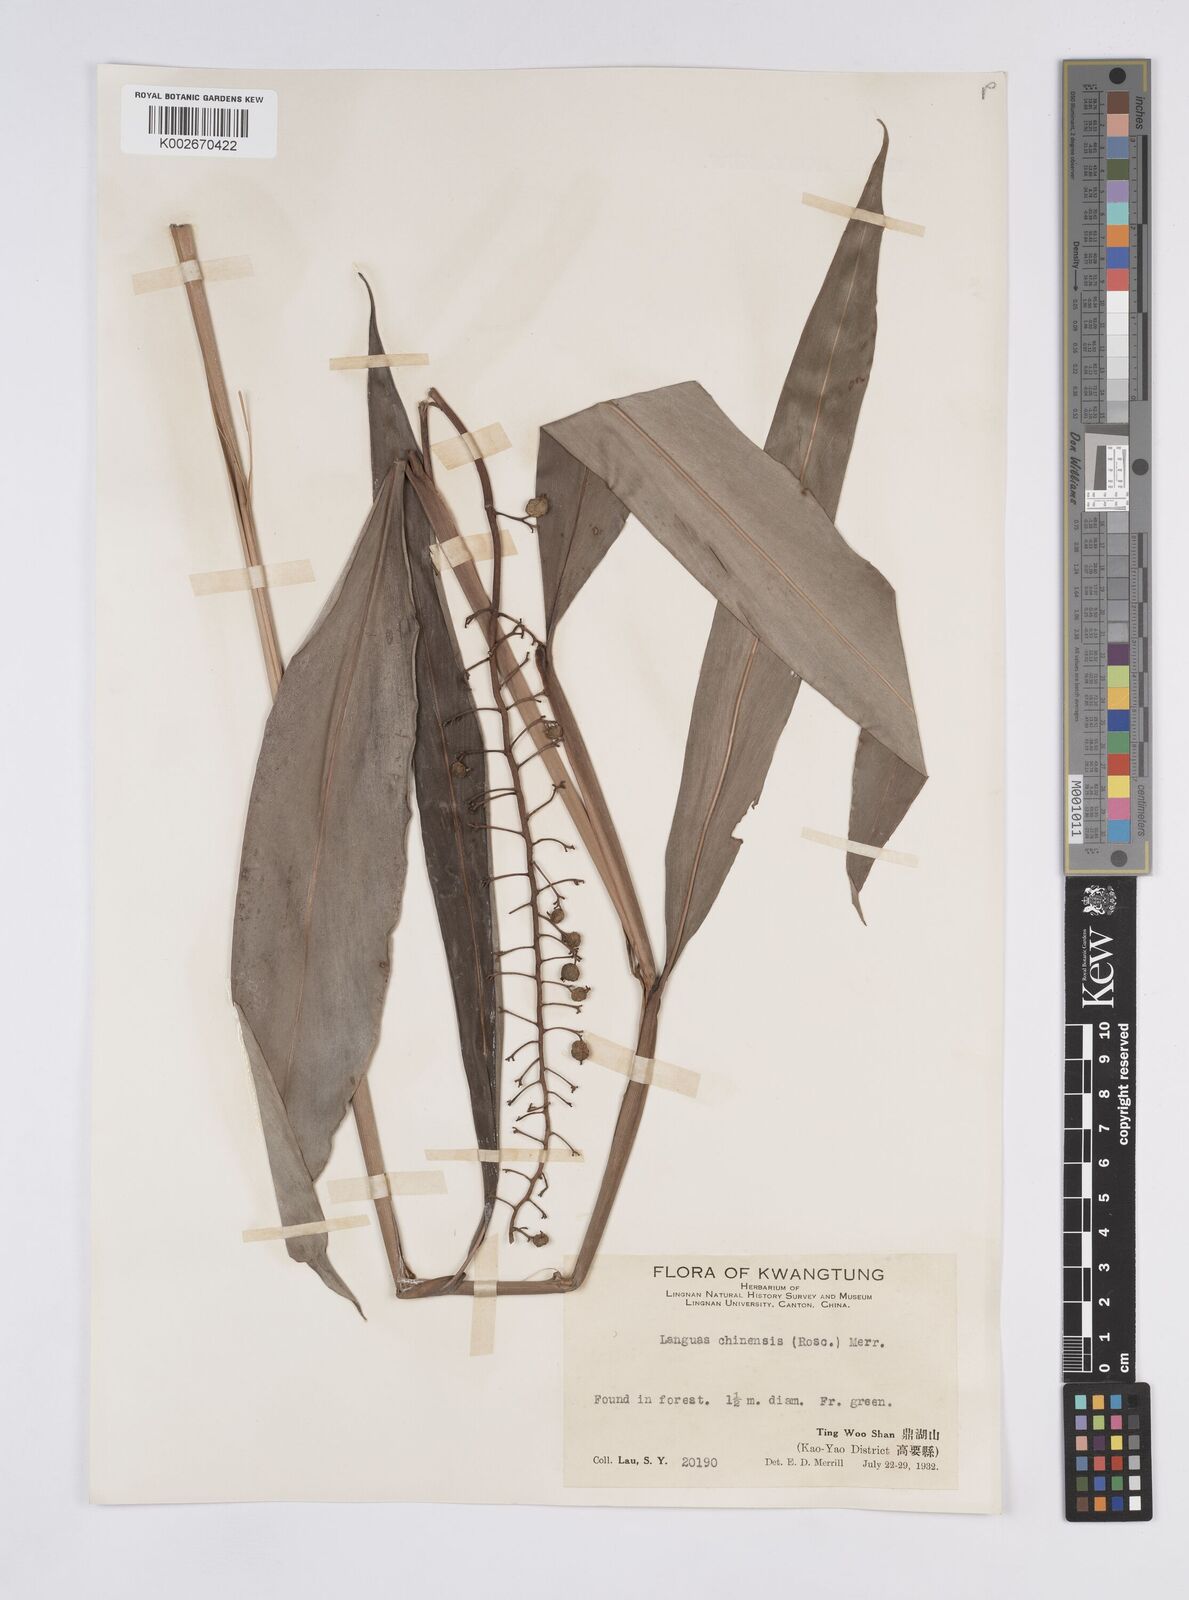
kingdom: Plantae
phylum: Tracheophyta
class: Liliopsida
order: Zingiberales
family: Zingiberaceae
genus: Alpinia
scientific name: Alpinia chinensis
